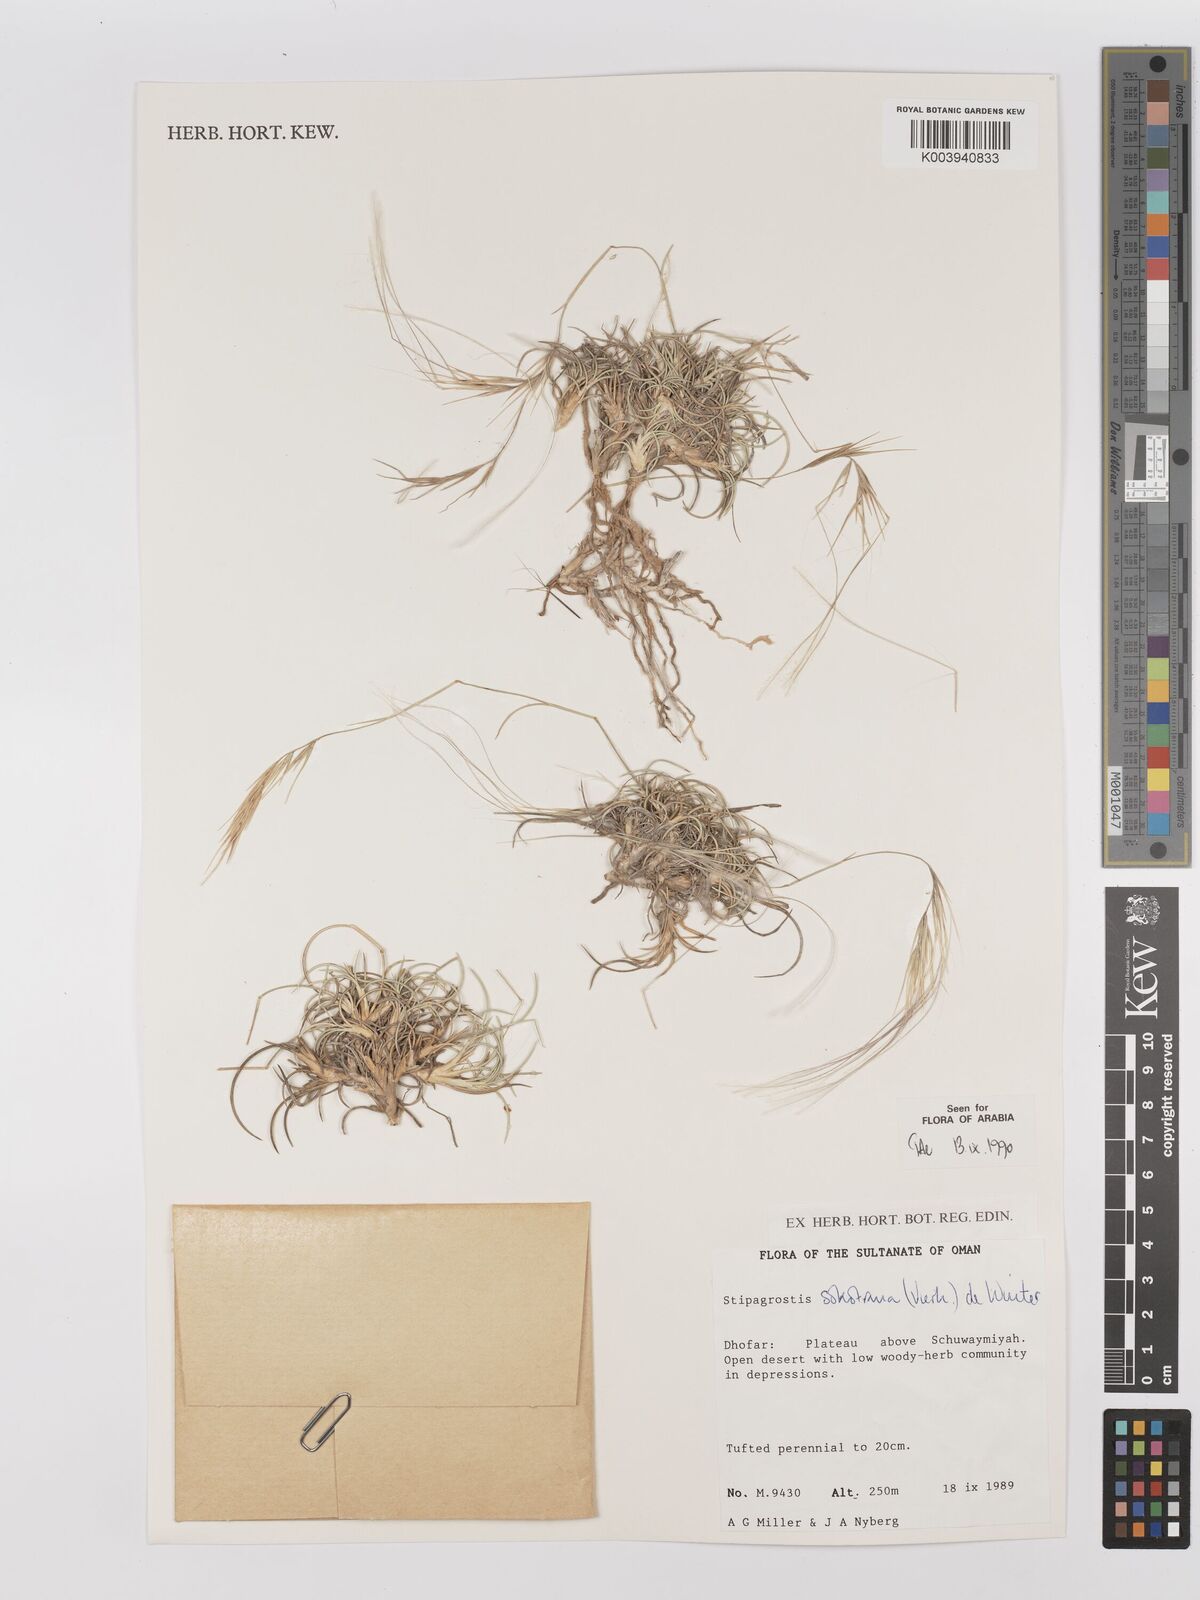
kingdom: Plantae
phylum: Tracheophyta
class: Liliopsida
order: Poales
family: Poaceae
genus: Stipagrostis
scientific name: Stipagrostis sokotrana
